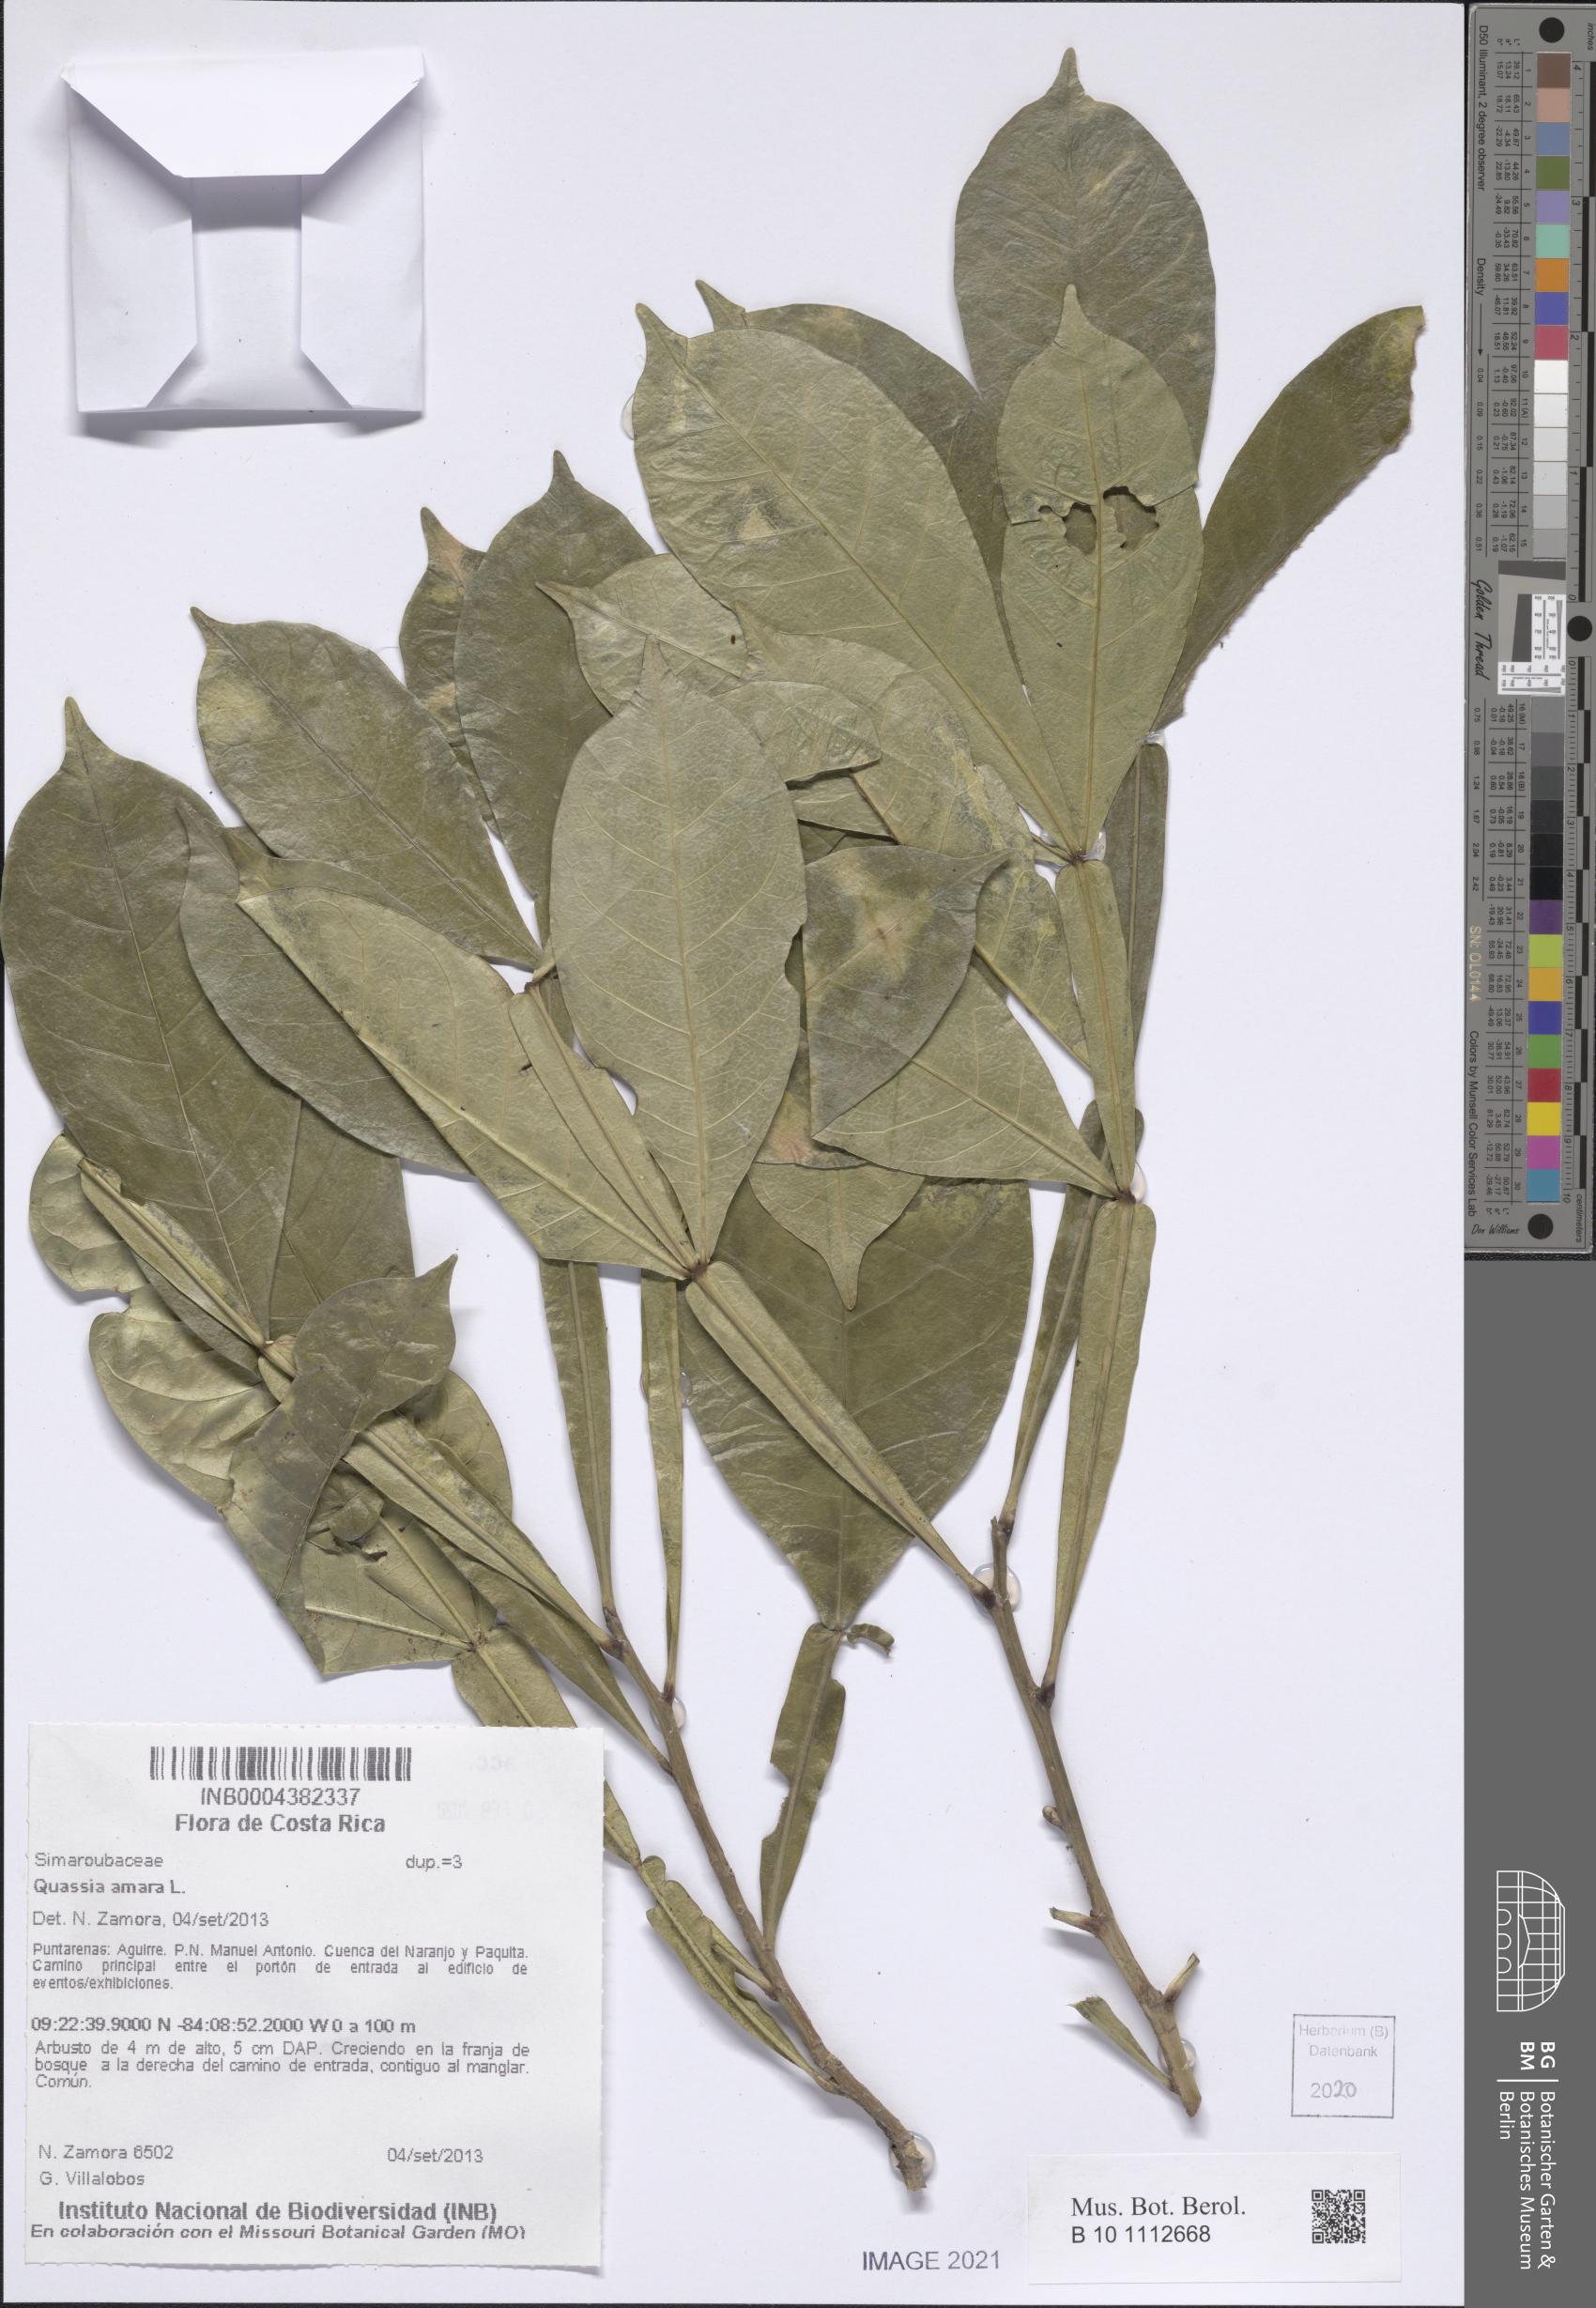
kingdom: Plantae
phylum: Tracheophyta
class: Magnoliopsida
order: Sapindales
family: Simaroubaceae
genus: Quassia
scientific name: Quassia amara
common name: Quassia
